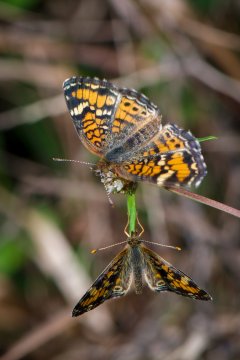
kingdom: Animalia
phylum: Arthropoda
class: Insecta
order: Lepidoptera
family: Nymphalidae
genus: Phyciodes
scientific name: Phyciodes phaon
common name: Phaon Crescent
